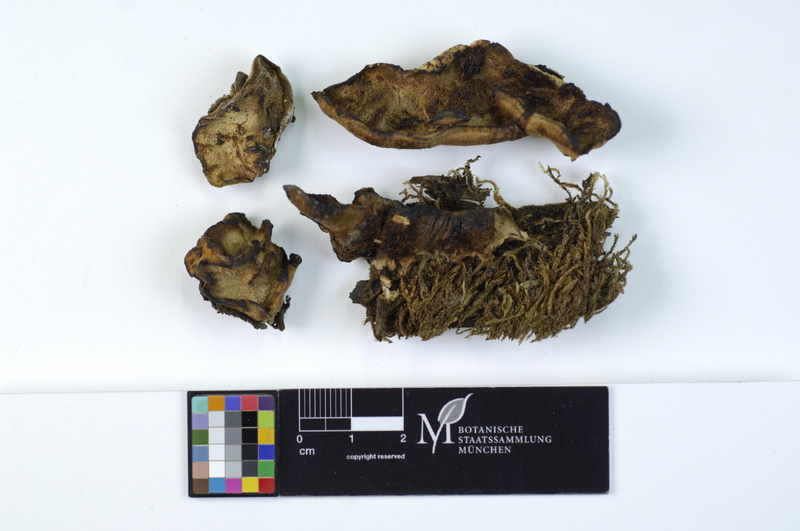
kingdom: Fungi
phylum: Basidiomycota
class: Agaricomycetes
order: Polyporales
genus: Fuscopostia
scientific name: Fuscopostia fragilis
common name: Brown-staining cheese polypore
